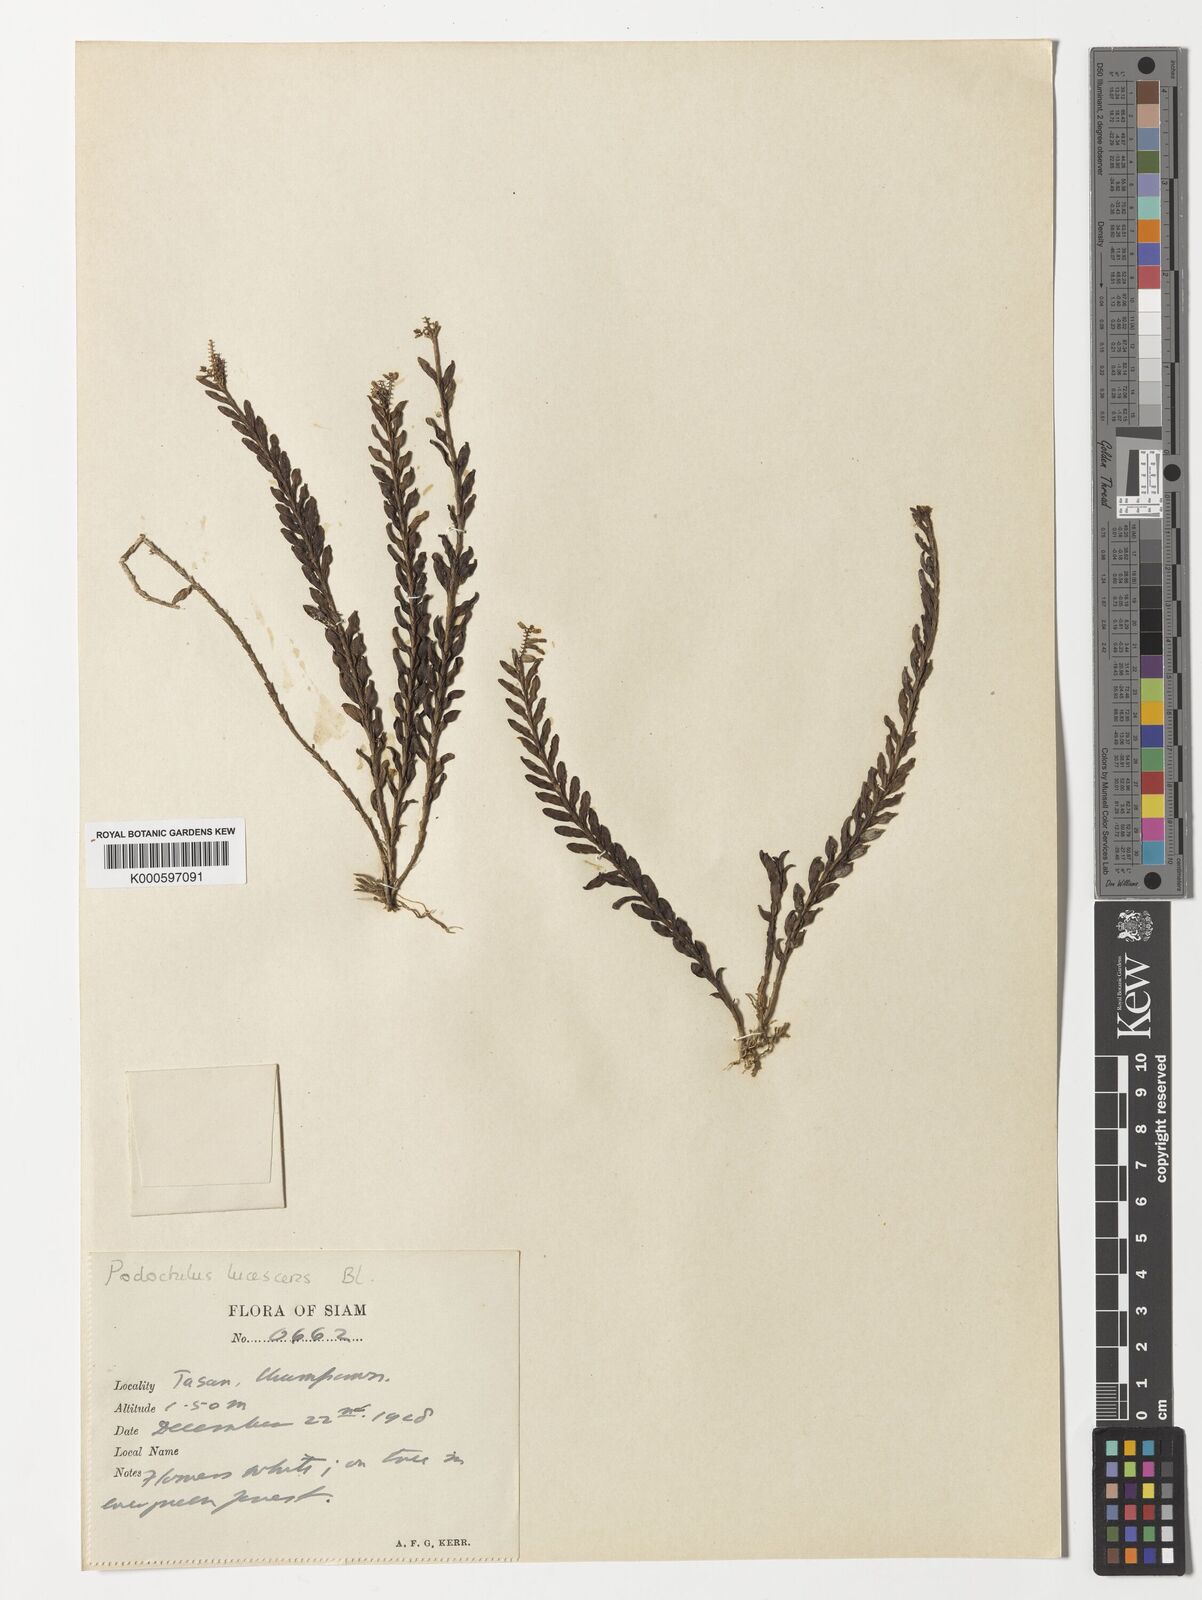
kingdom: Plantae
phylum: Tracheophyta
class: Liliopsida
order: Asparagales
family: Orchidaceae
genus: Podochilus
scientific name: Podochilus lucescens
